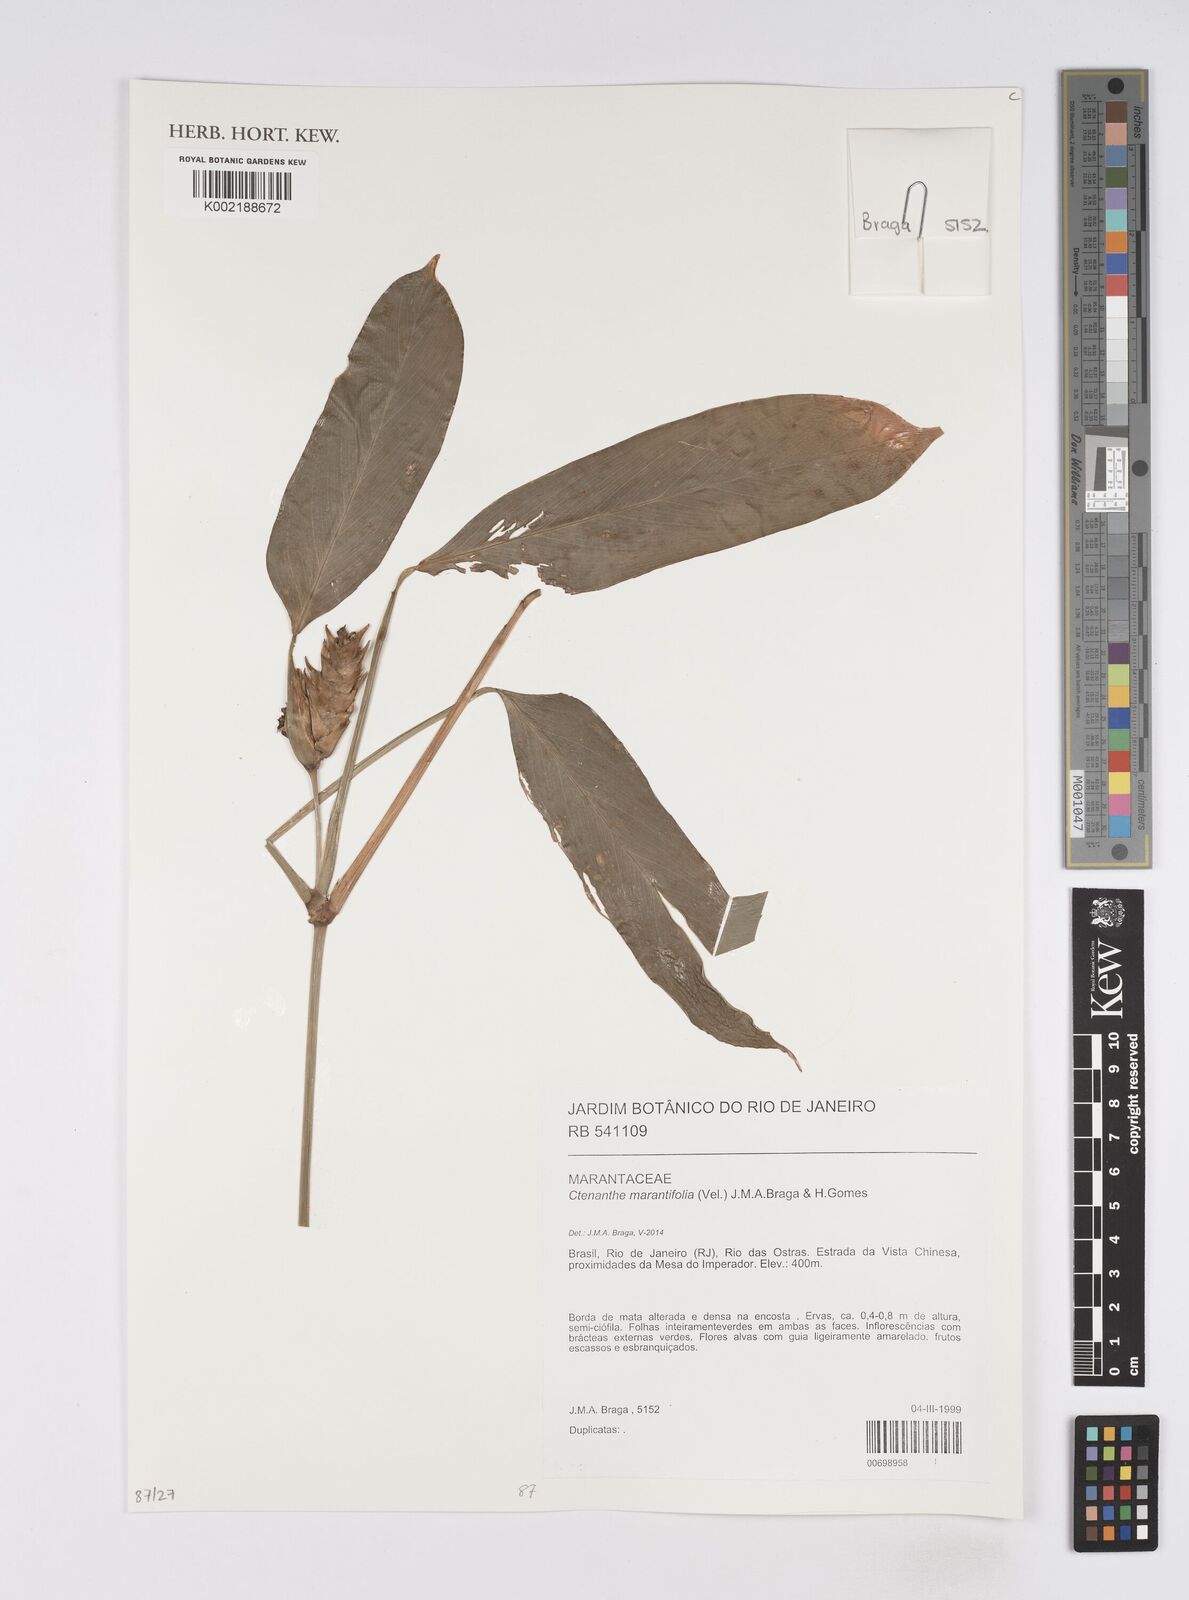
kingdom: Plantae
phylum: Tracheophyta
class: Liliopsida
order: Zingiberales
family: Marantaceae
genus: Ctenanthe
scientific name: Ctenanthe marantifolia
